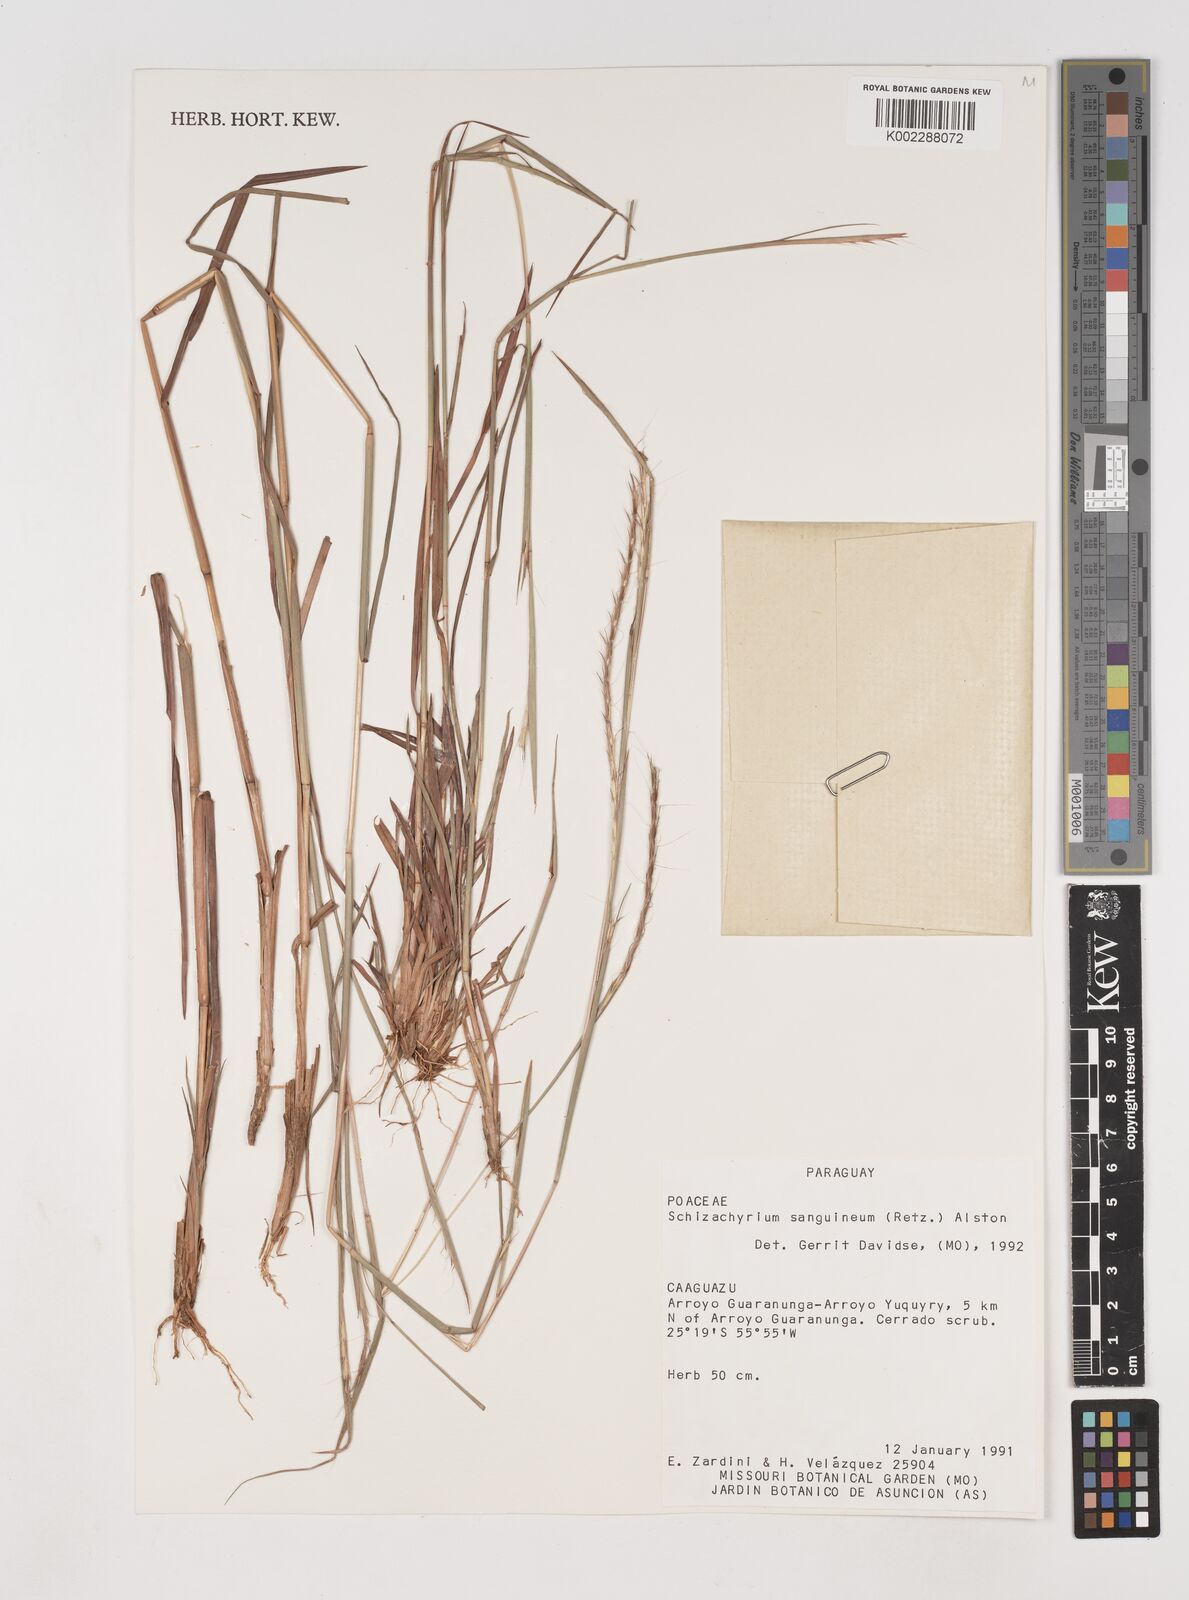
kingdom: Plantae
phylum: Tracheophyta
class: Liliopsida
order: Poales
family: Poaceae
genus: Schizachyrium
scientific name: Schizachyrium sanguineum
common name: Crimson bluestem
